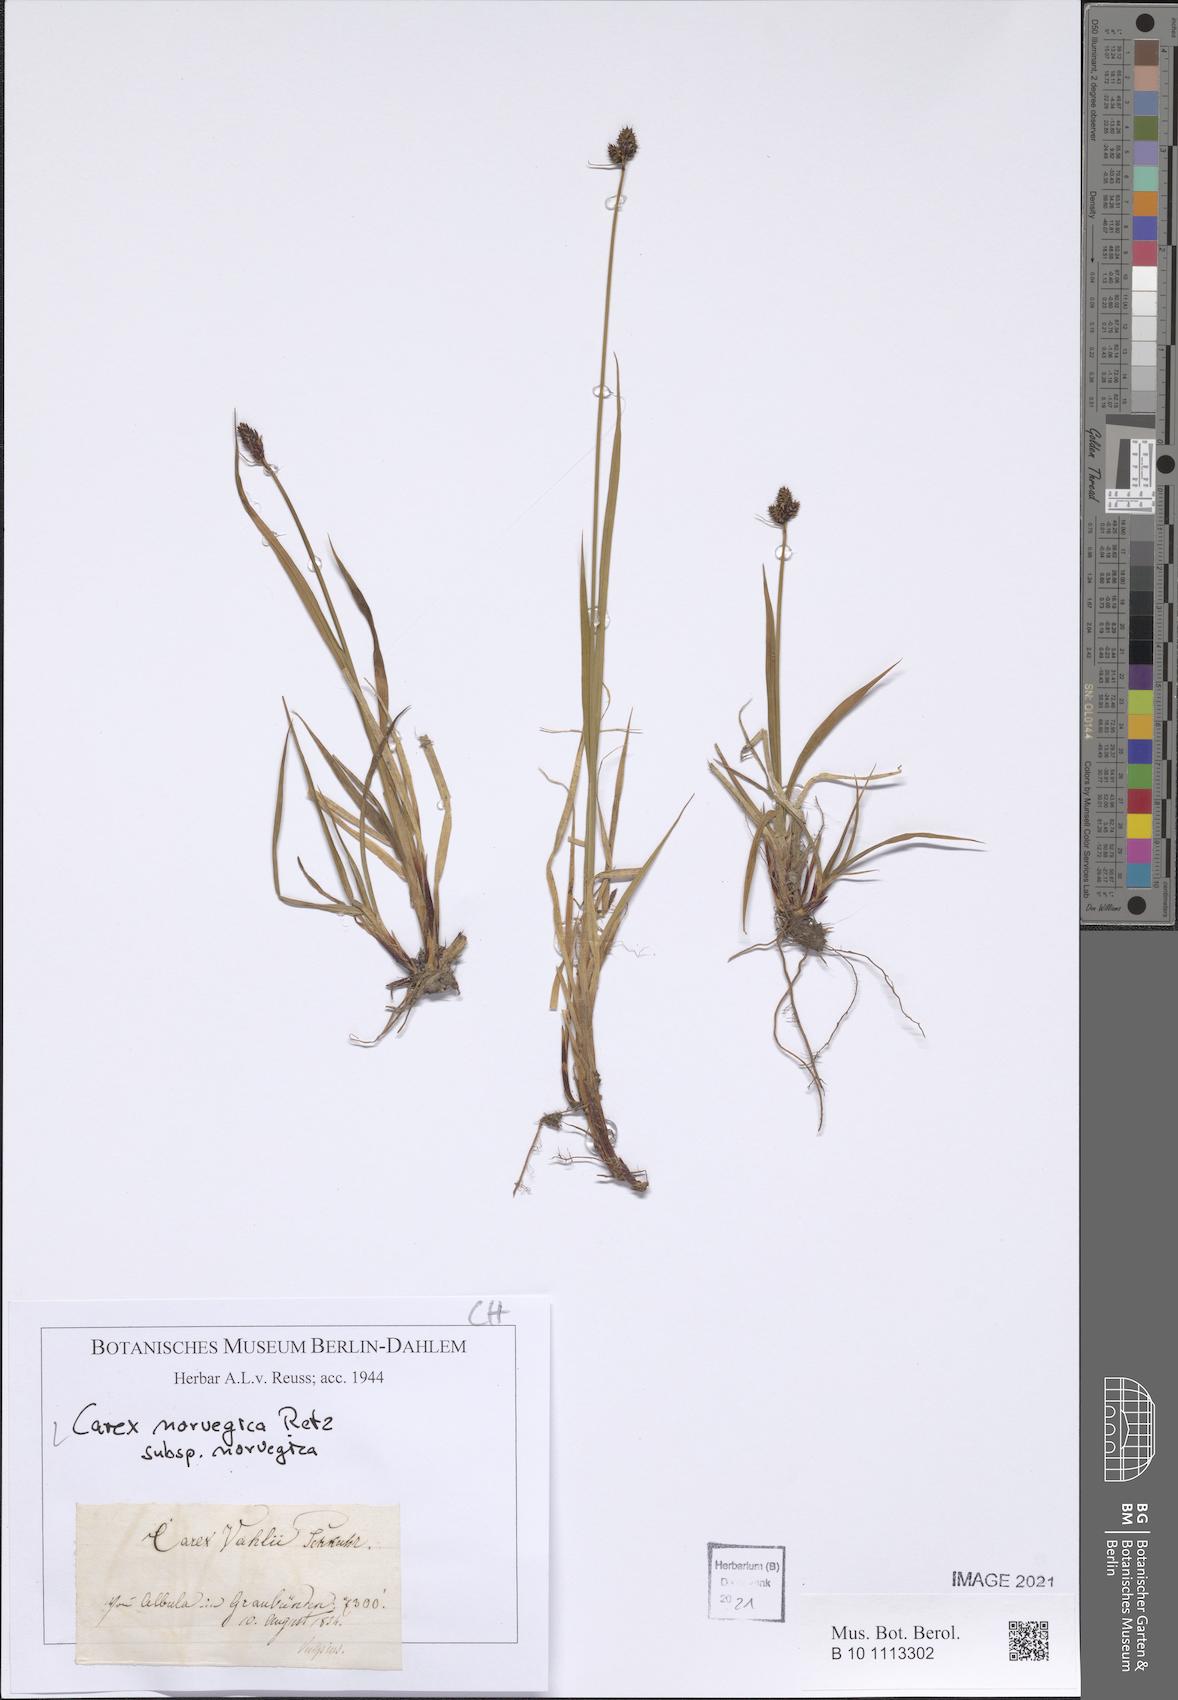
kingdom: Plantae
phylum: Tracheophyta
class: Liliopsida
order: Poales
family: Cyperaceae
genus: Carex
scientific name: Carex norvegica
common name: Close-headed alpine-sedge
